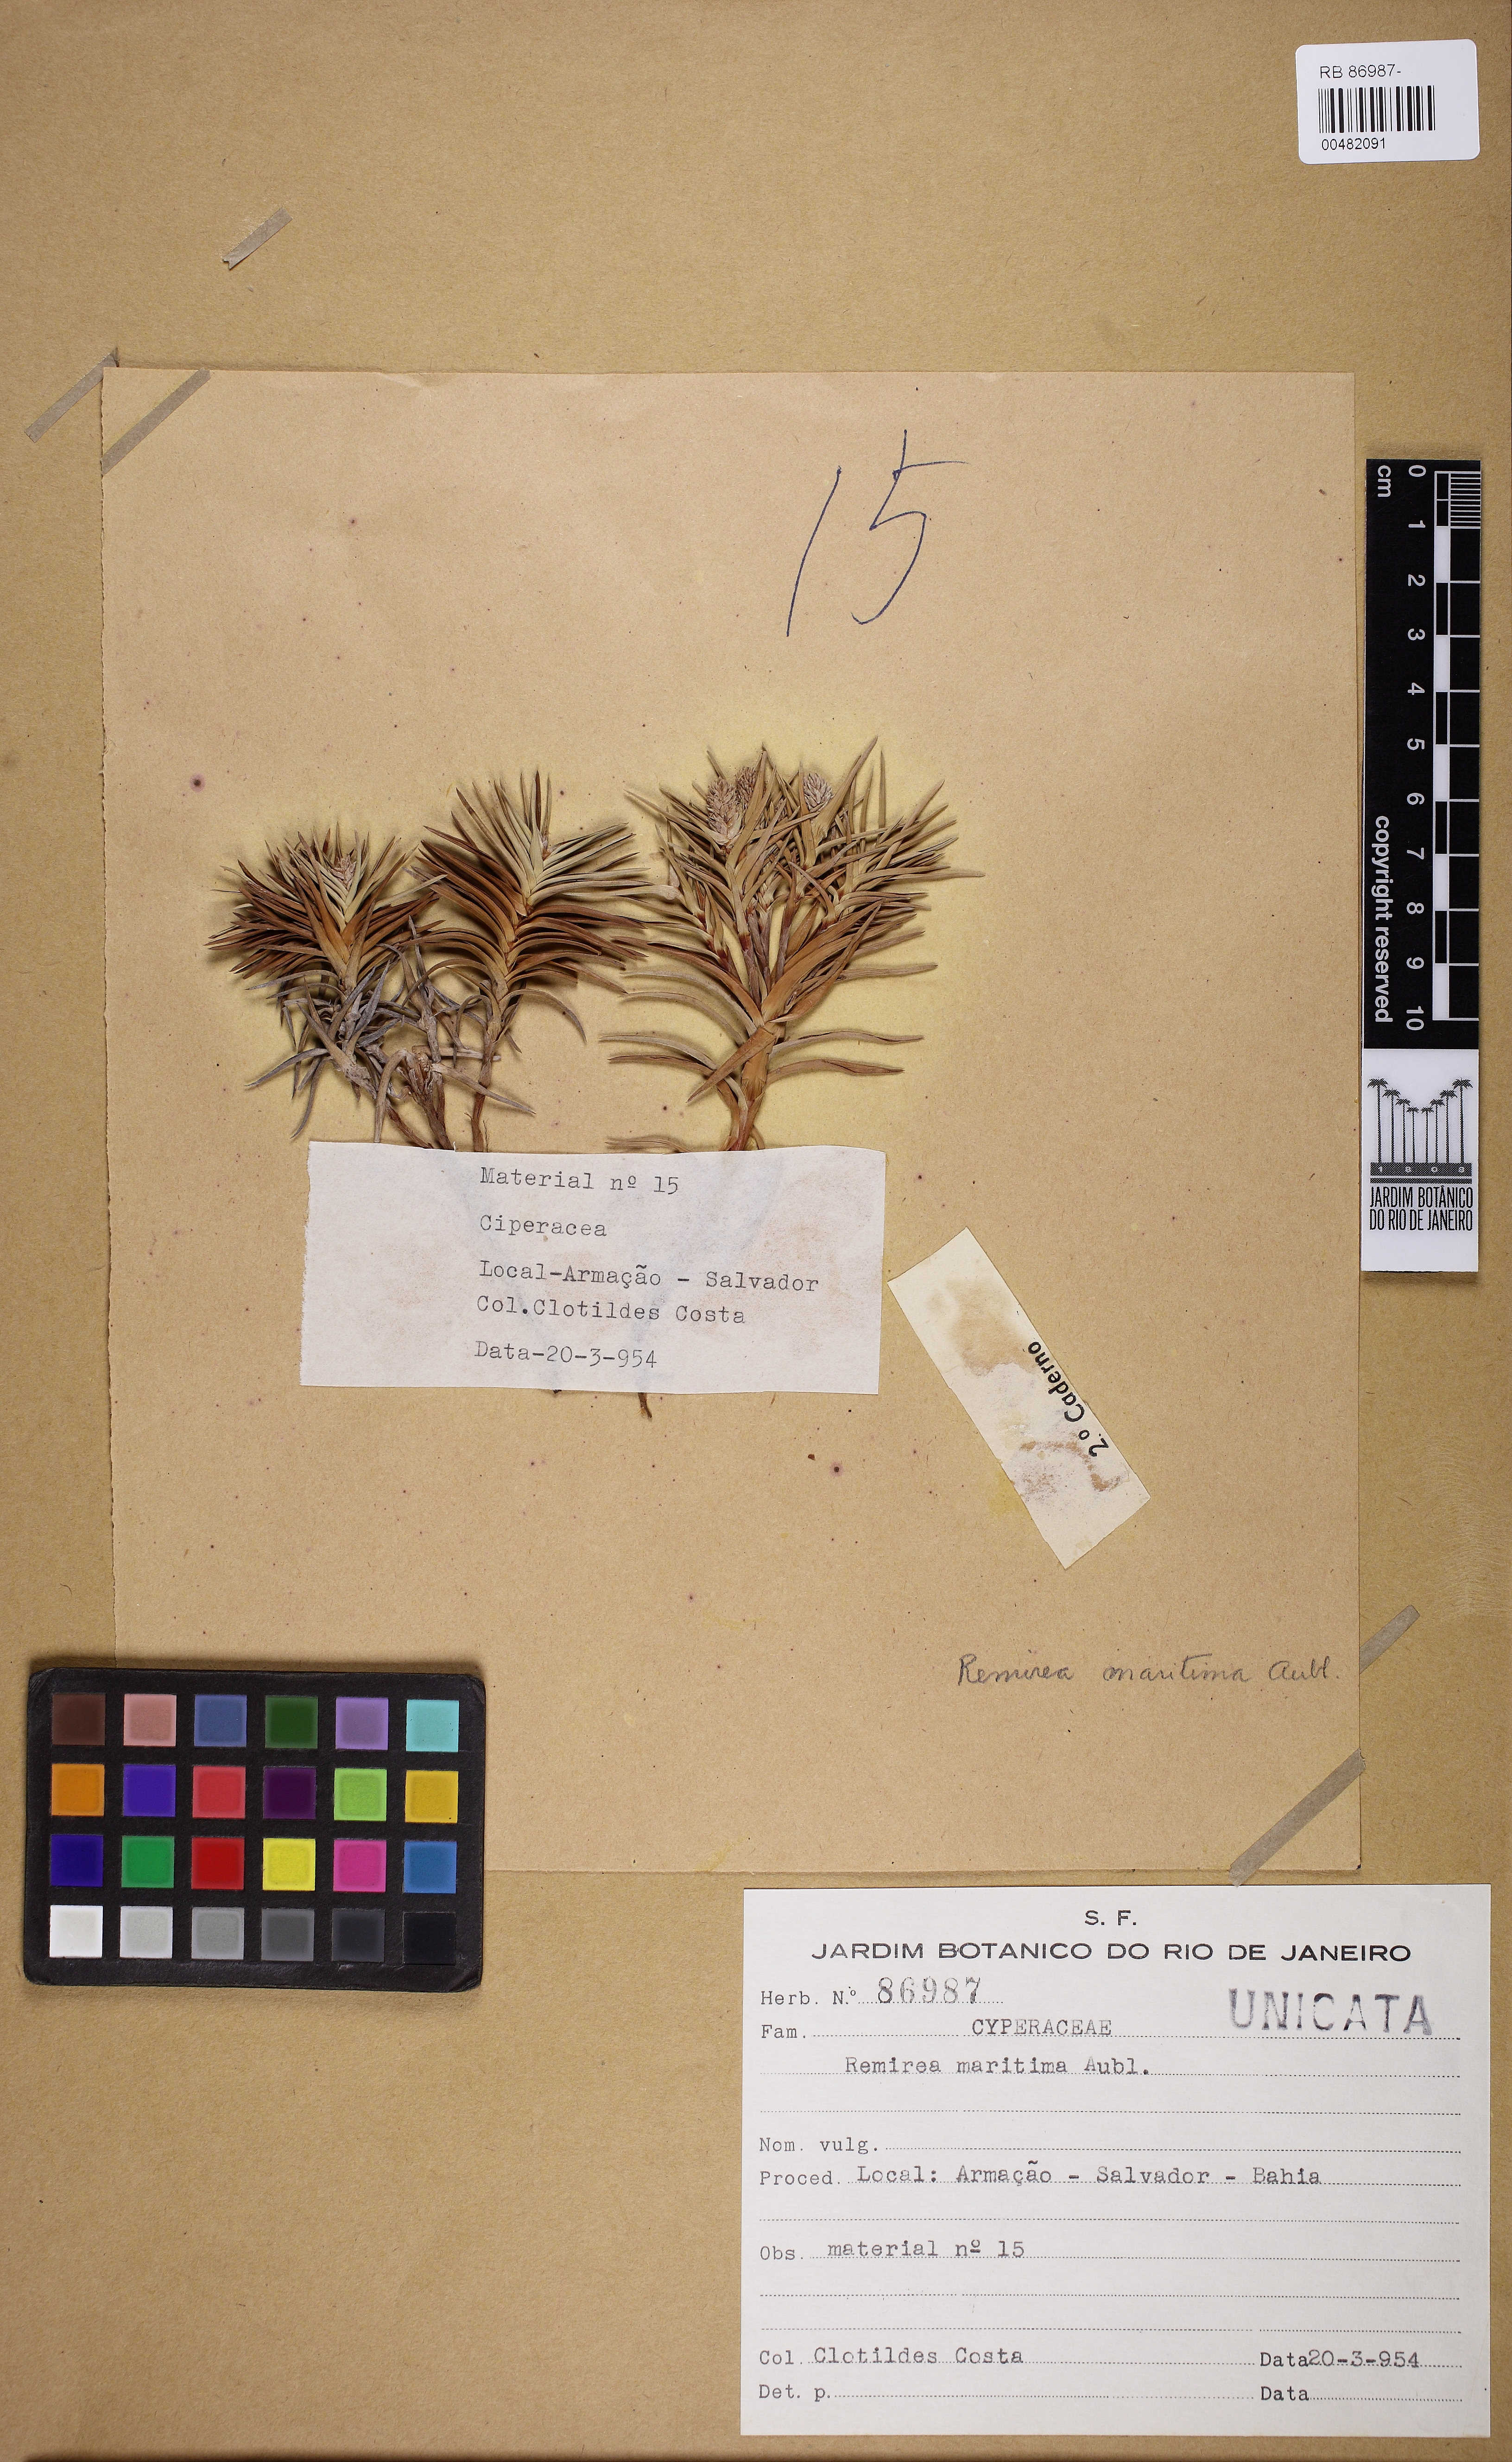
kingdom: Plantae
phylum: Tracheophyta
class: Liliopsida
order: Poales
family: Cyperaceae
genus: Cyperus
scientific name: Cyperus pedunculatus
